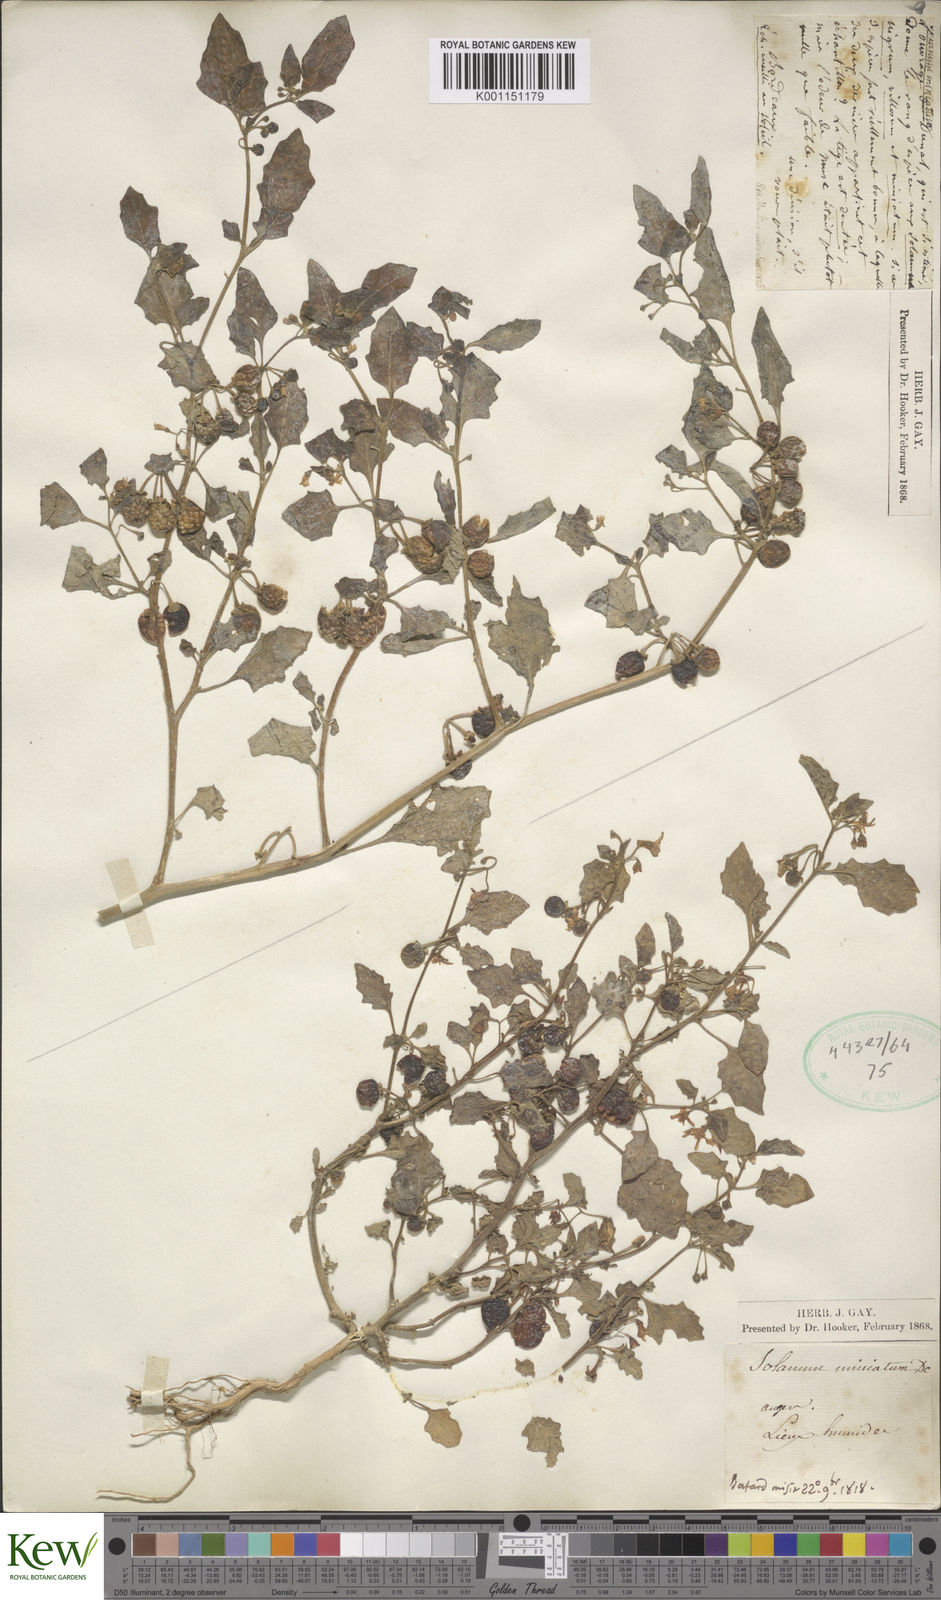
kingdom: Plantae
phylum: Tracheophyta
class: Magnoliopsida
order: Solanales
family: Solanaceae
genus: Solanum
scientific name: Solanum alatum
